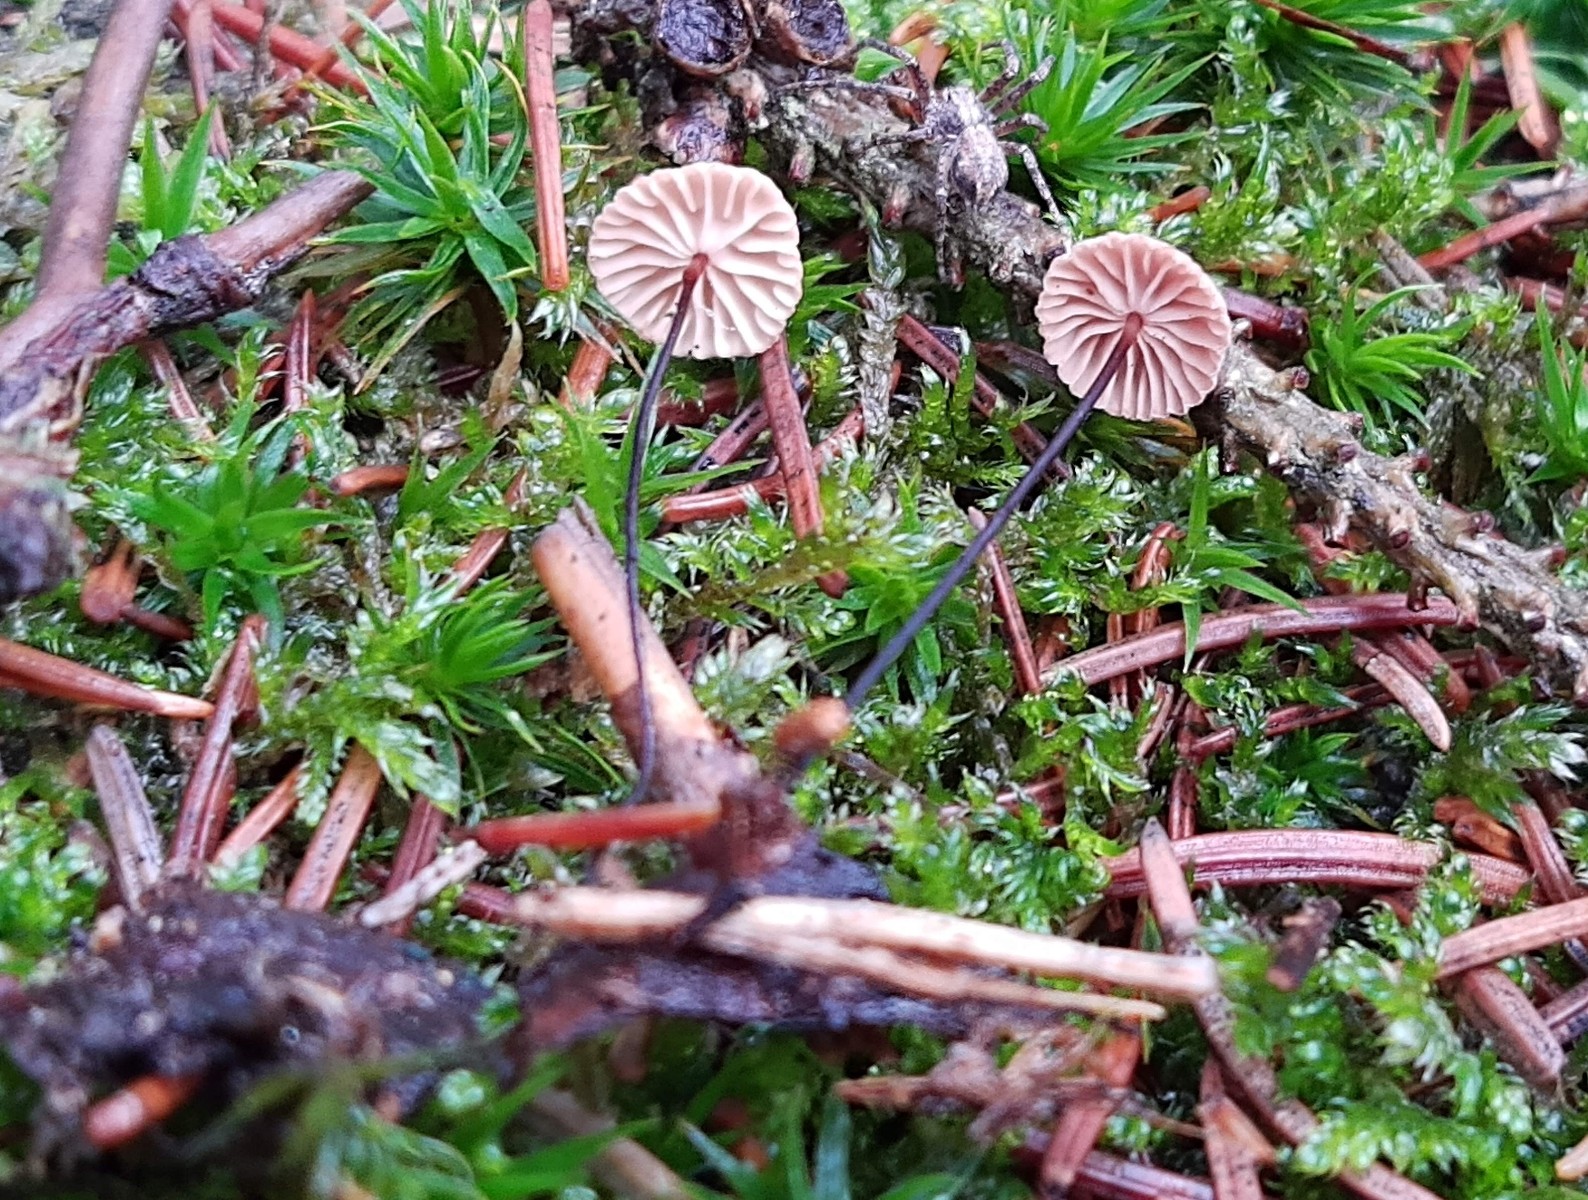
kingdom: Fungi
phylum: Basidiomycota
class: Agaricomycetes
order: Agaricales
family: Omphalotaceae
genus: Paragymnopus
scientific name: Paragymnopus perforans
